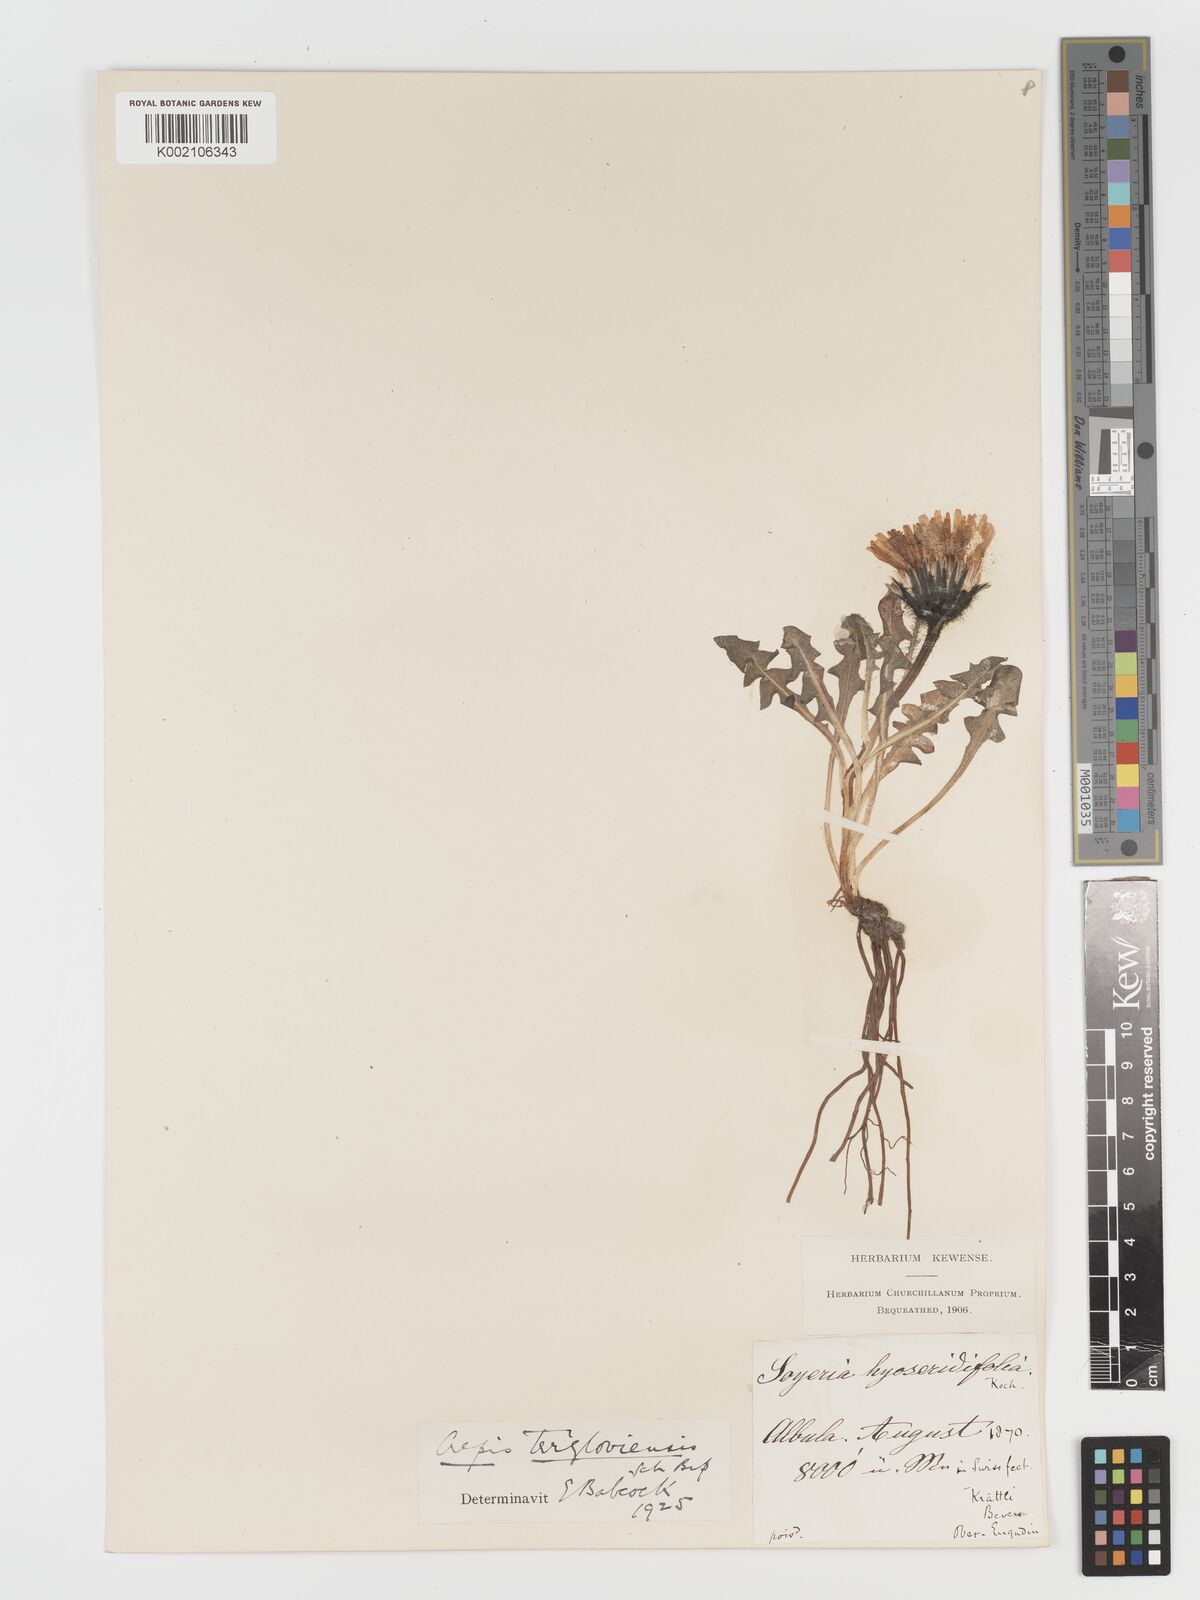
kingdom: Plantae
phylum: Tracheophyta
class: Magnoliopsida
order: Asterales
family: Asteraceae
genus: Crepis
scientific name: Crepis
